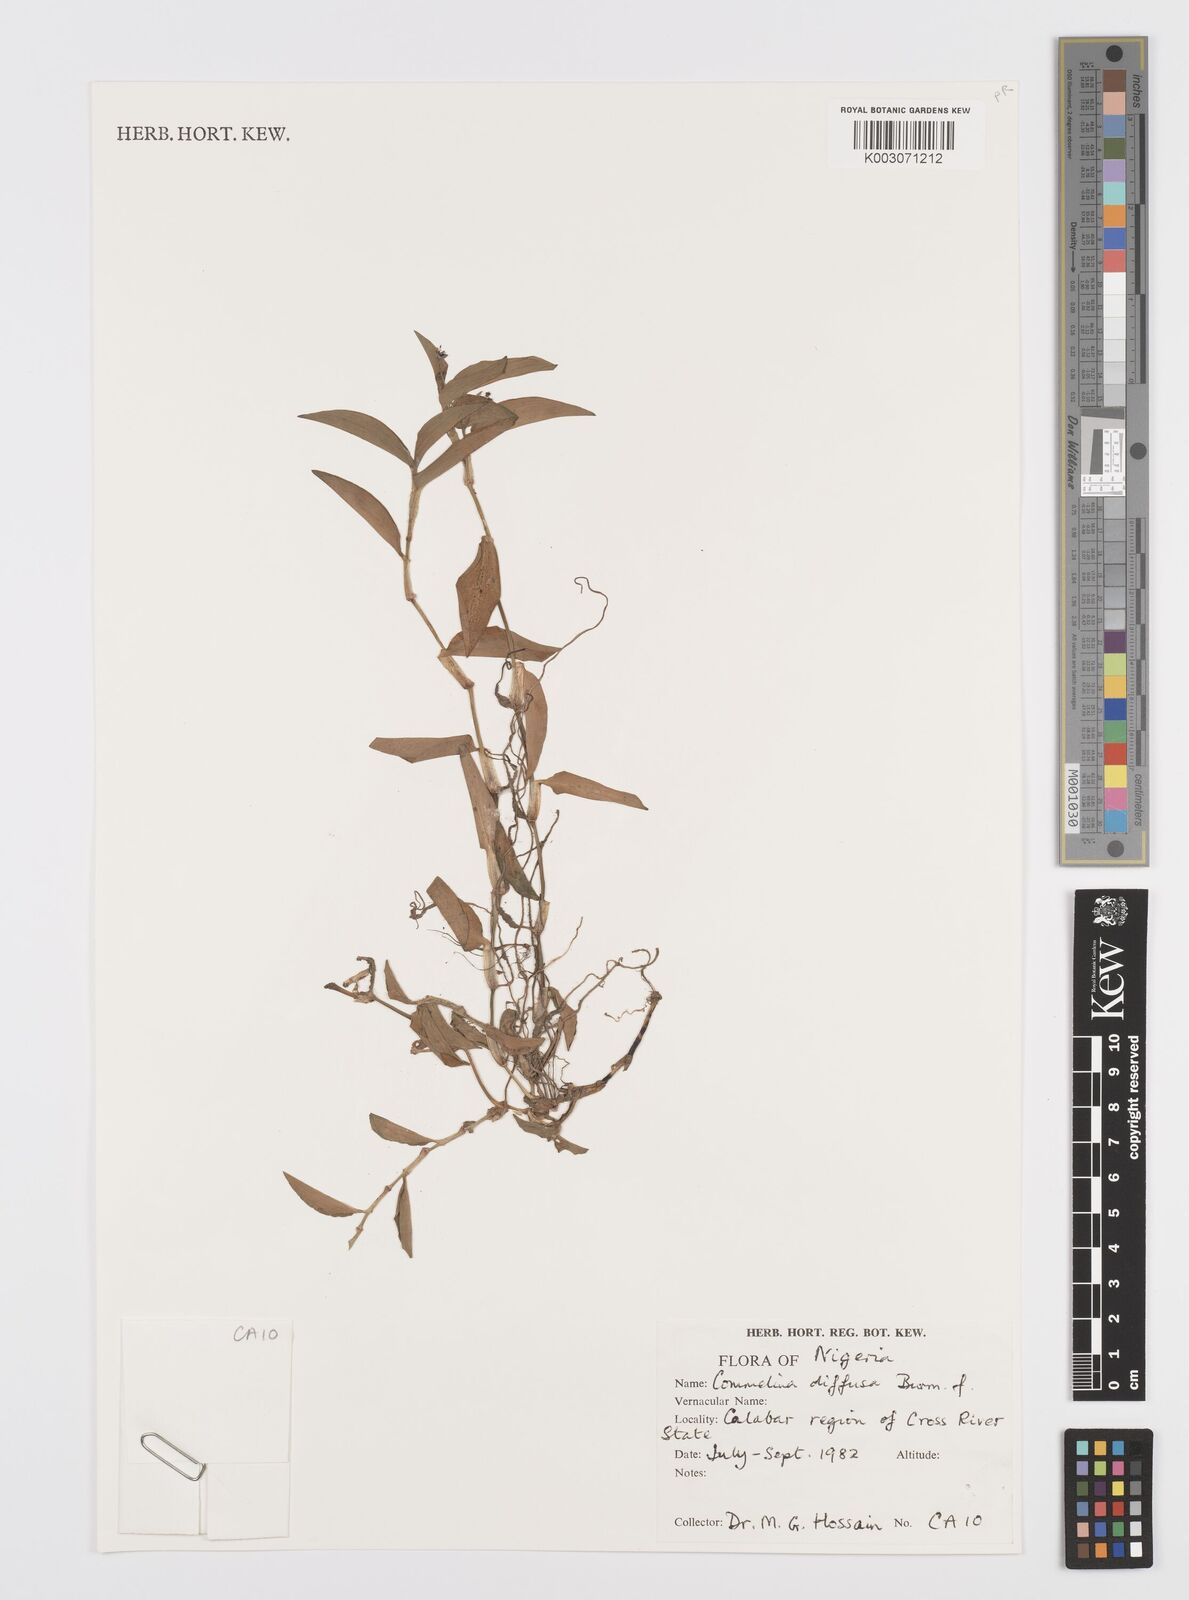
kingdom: Plantae
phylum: Tracheophyta
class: Liliopsida
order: Commelinales
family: Commelinaceae
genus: Commelina
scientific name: Commelina diffusa
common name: Climbing dayflower
